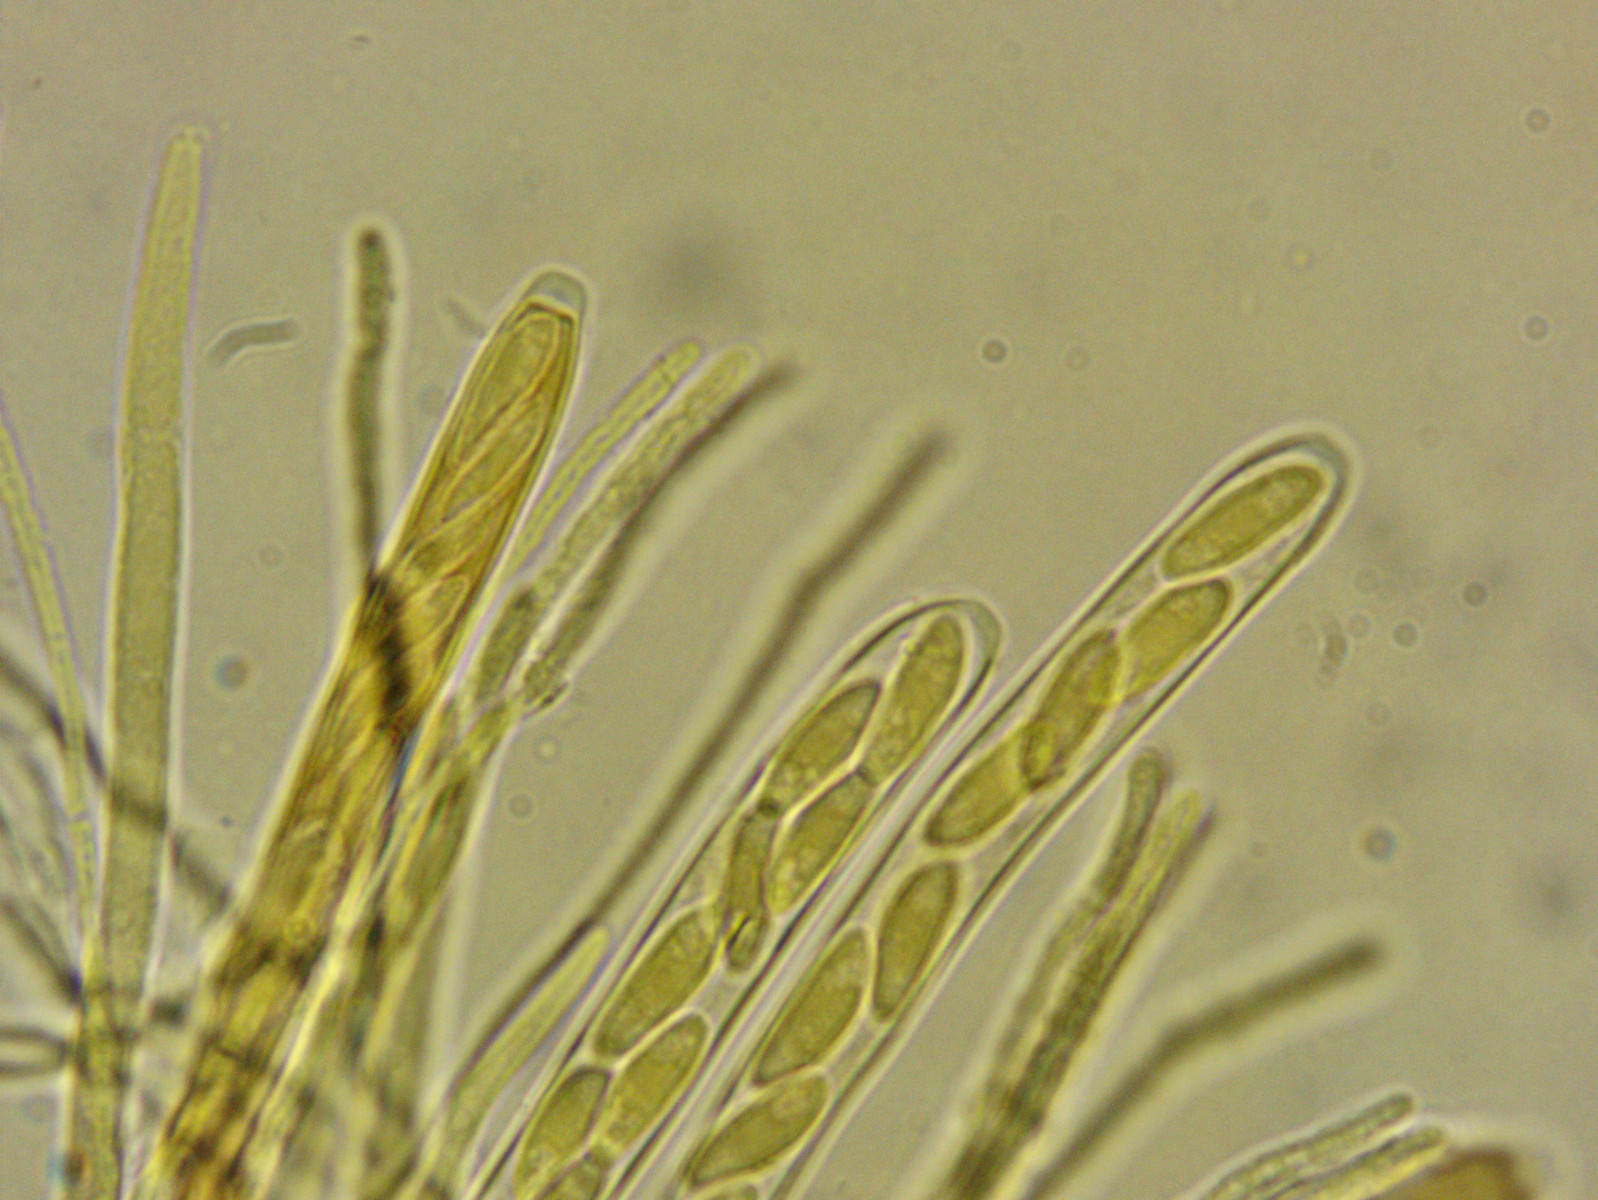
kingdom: Fungi
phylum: Ascomycota
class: Leotiomycetes
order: Helotiales
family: Helotiaceae
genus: Hymenoscyphus
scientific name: Hymenoscyphus calyculus
